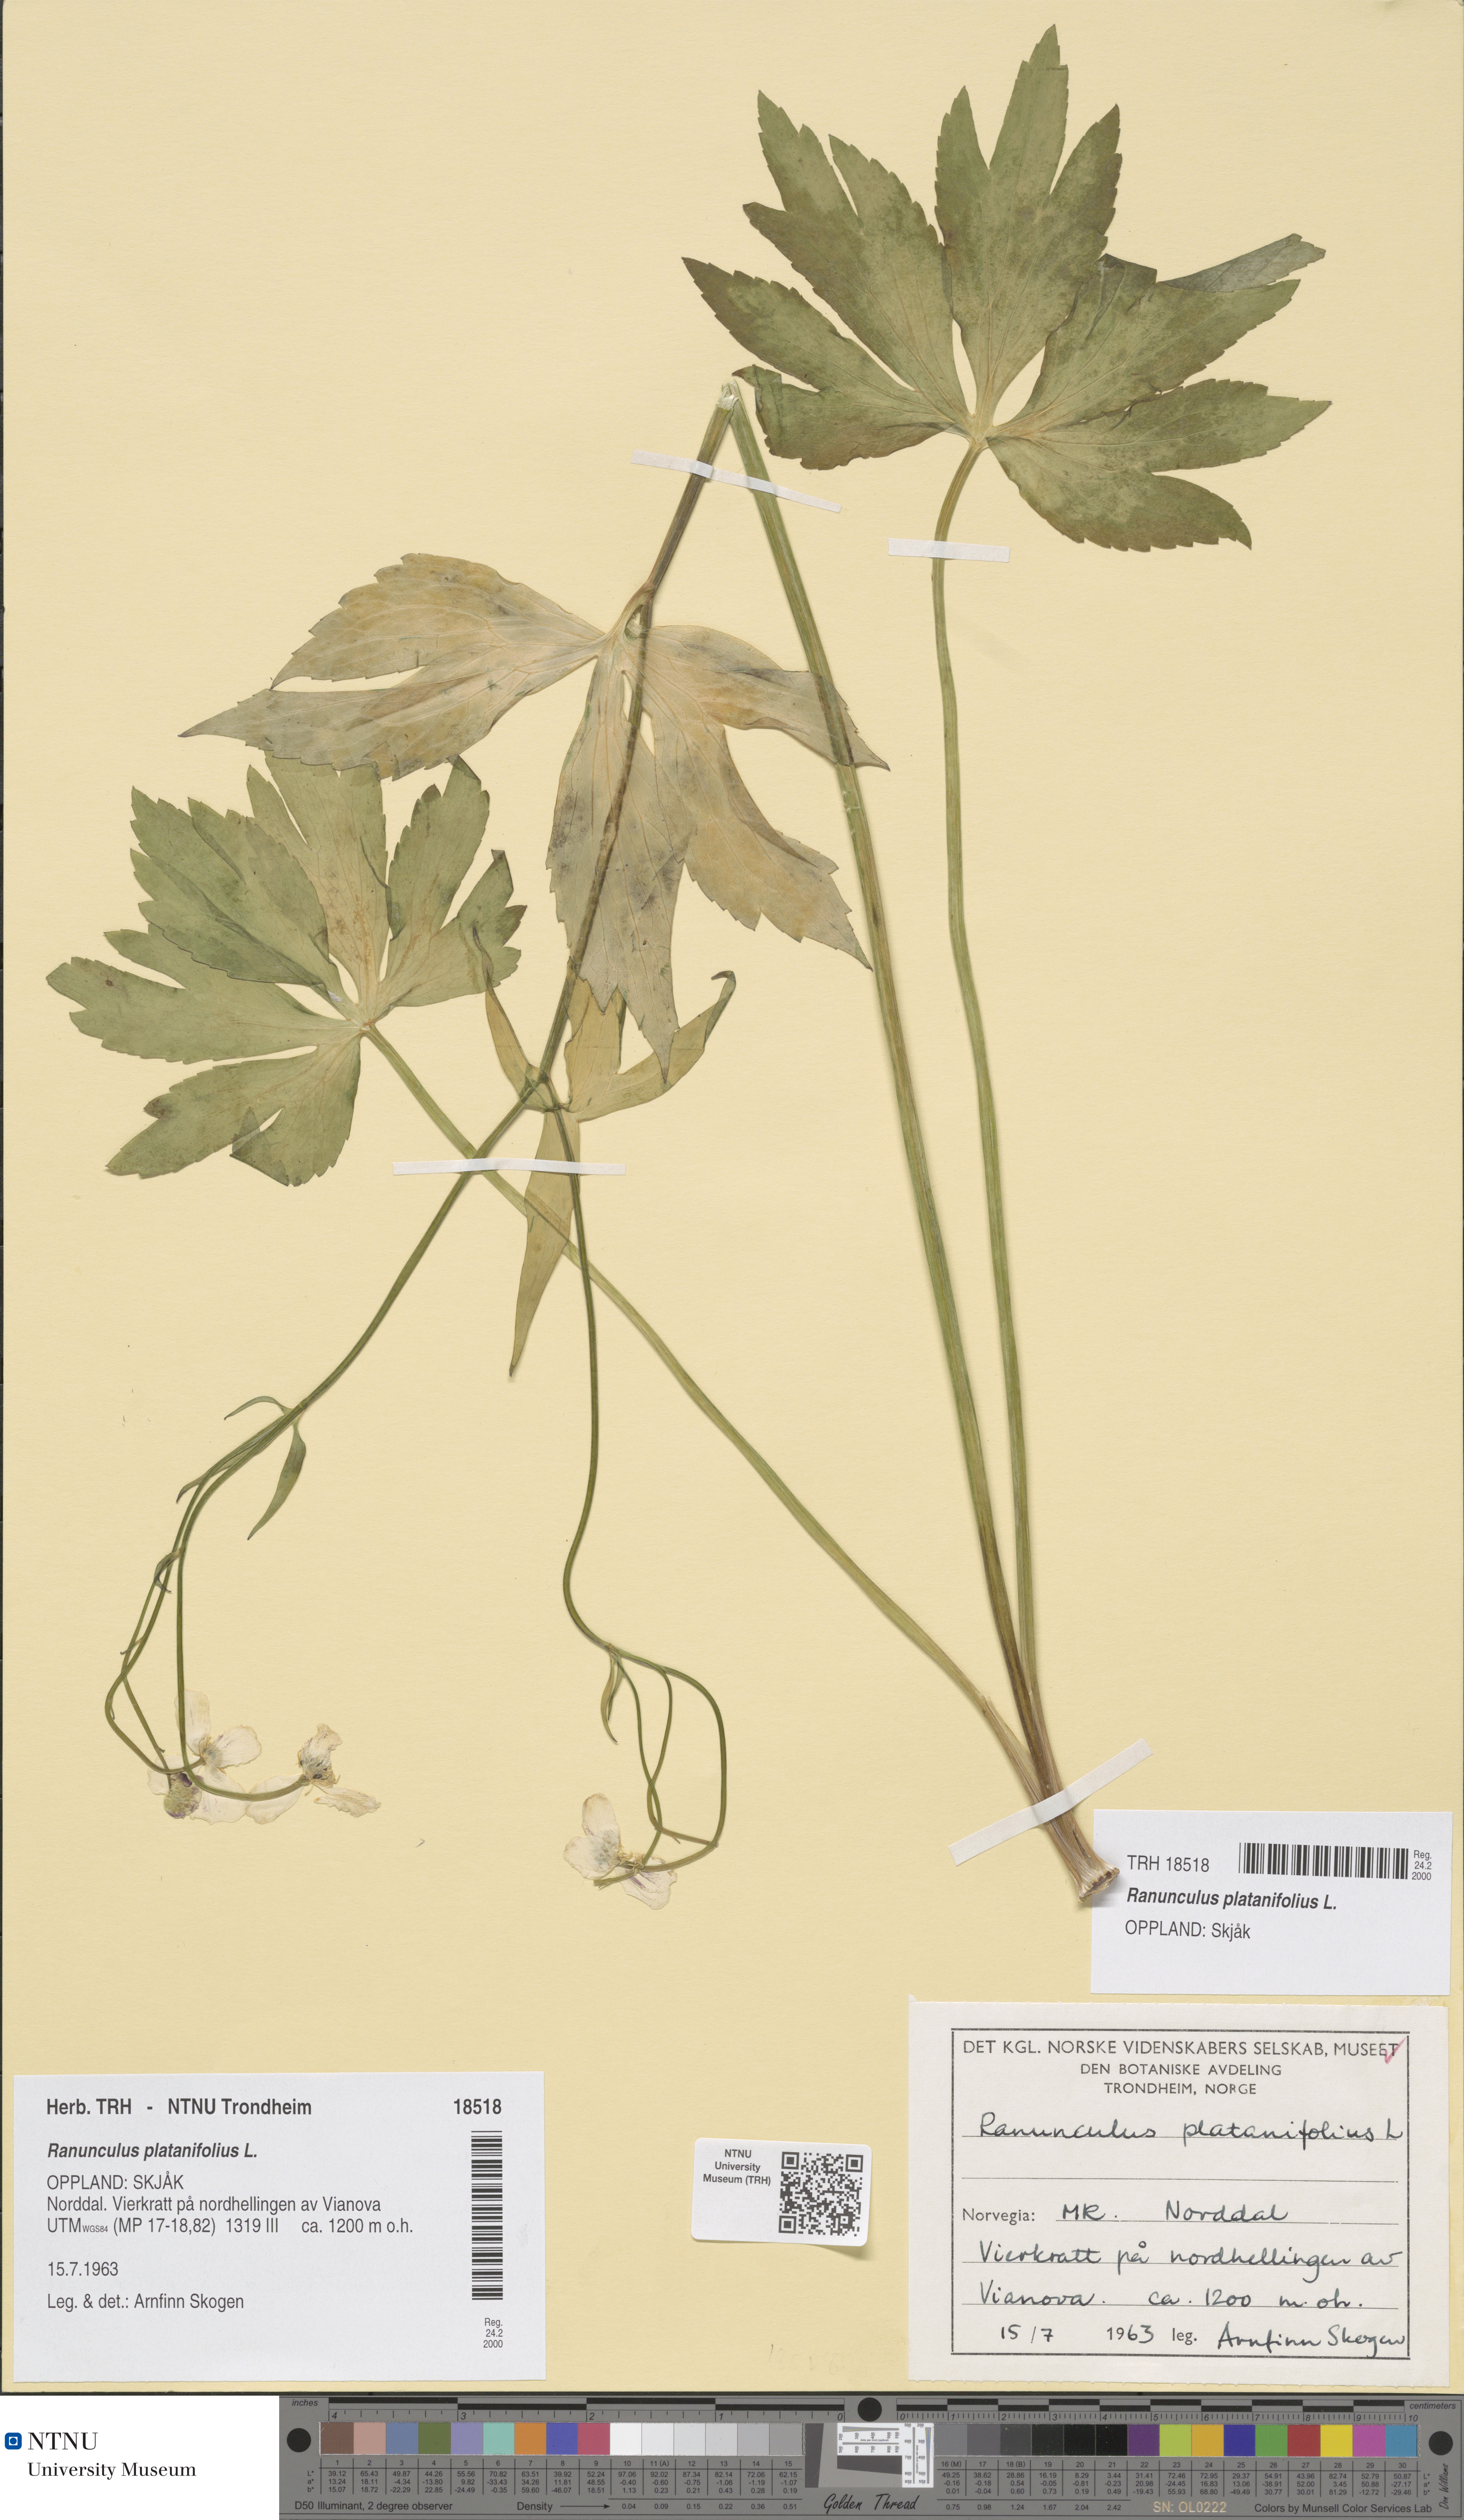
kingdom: Plantae
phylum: Tracheophyta
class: Magnoliopsida
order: Ranunculales
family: Ranunculaceae
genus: Ranunculus
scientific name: Ranunculus platanifolius
